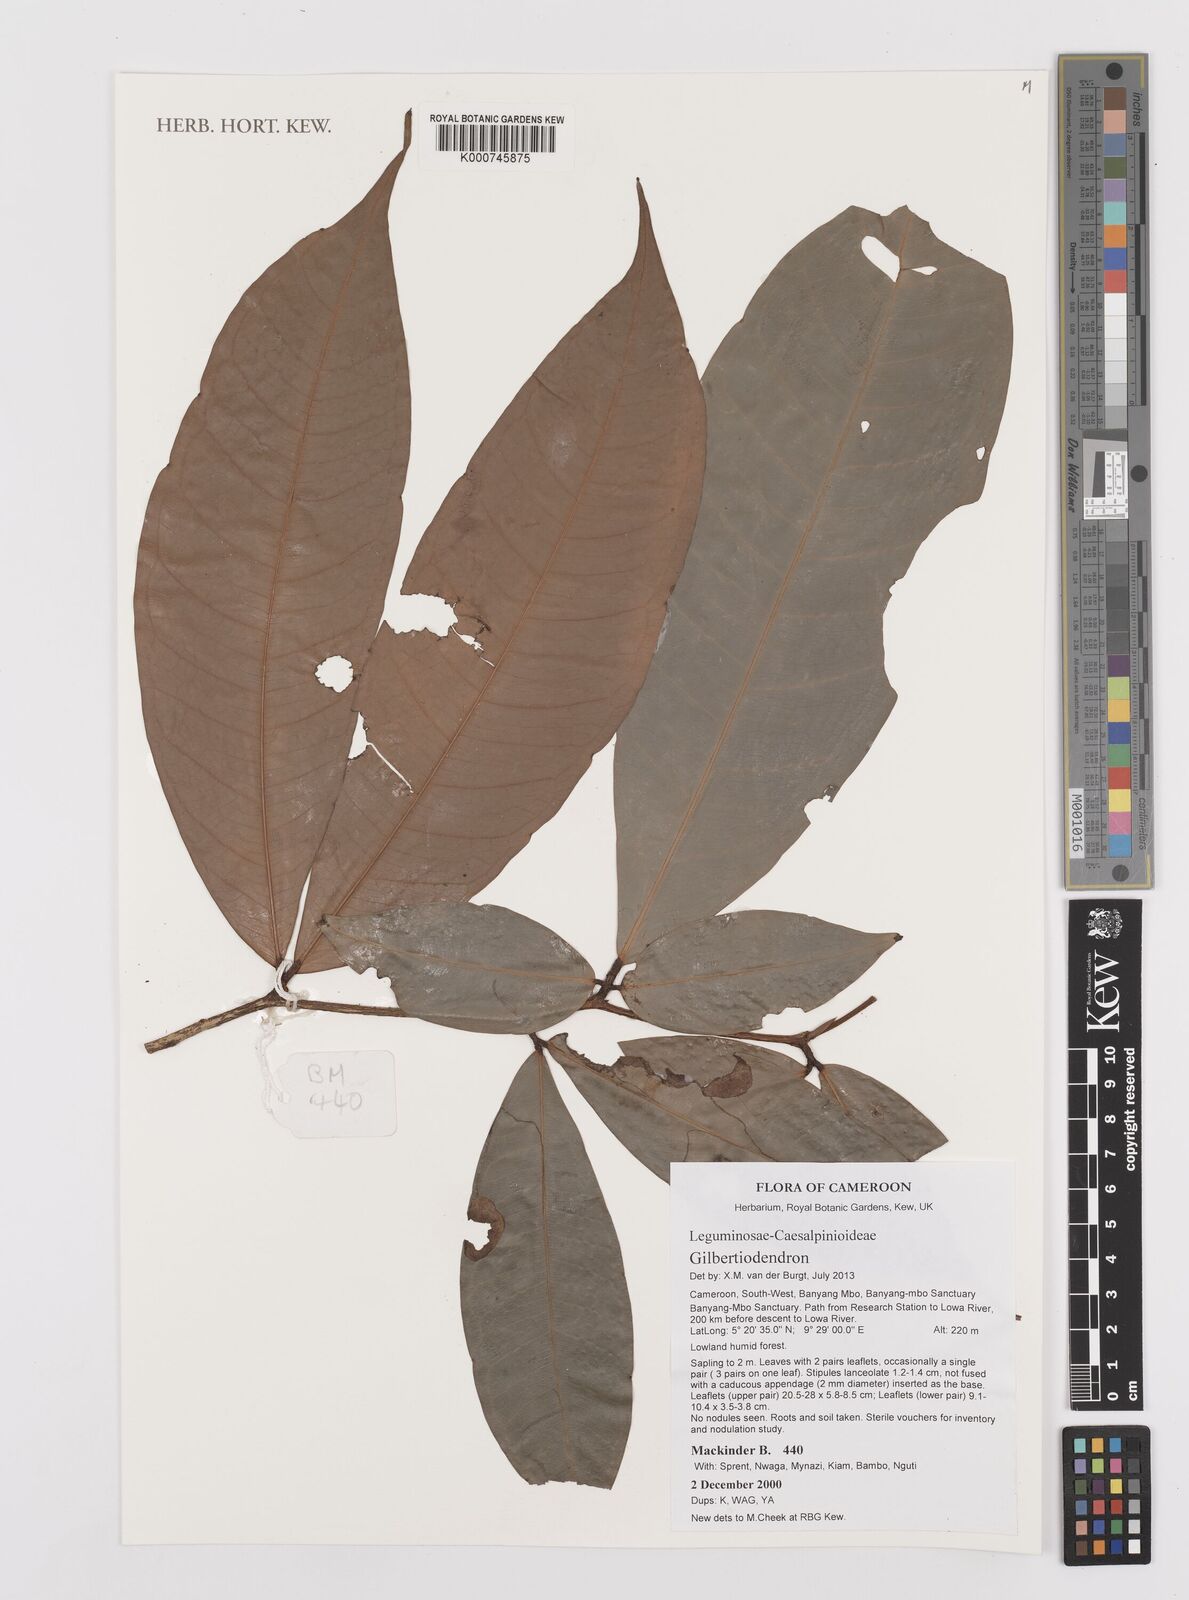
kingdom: Plantae
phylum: Tracheophyta
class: Magnoliopsida
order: Fabales
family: Fabaceae
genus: Gilbertiodendron
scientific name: Gilbertiodendron
